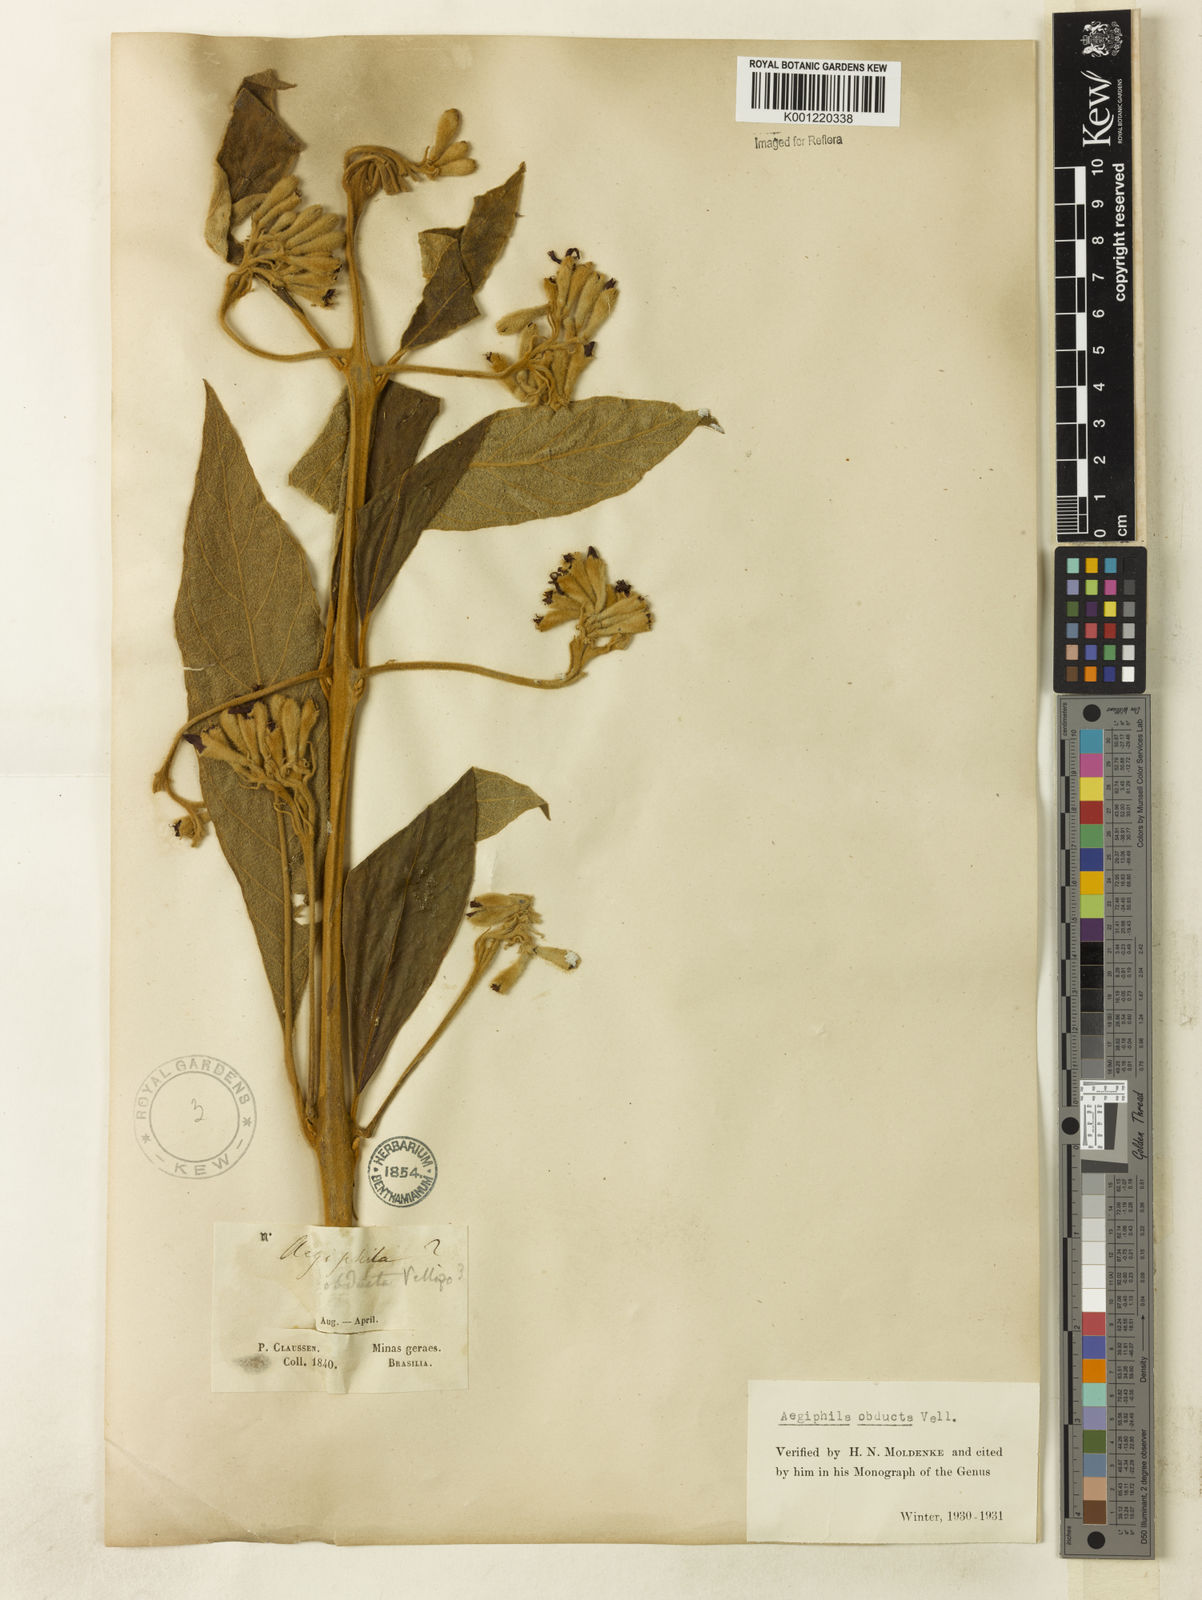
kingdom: Plantae
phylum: Tracheophyta
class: Magnoliopsida
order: Lamiales
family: Lamiaceae
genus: Aegiphila
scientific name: Aegiphila obducta
